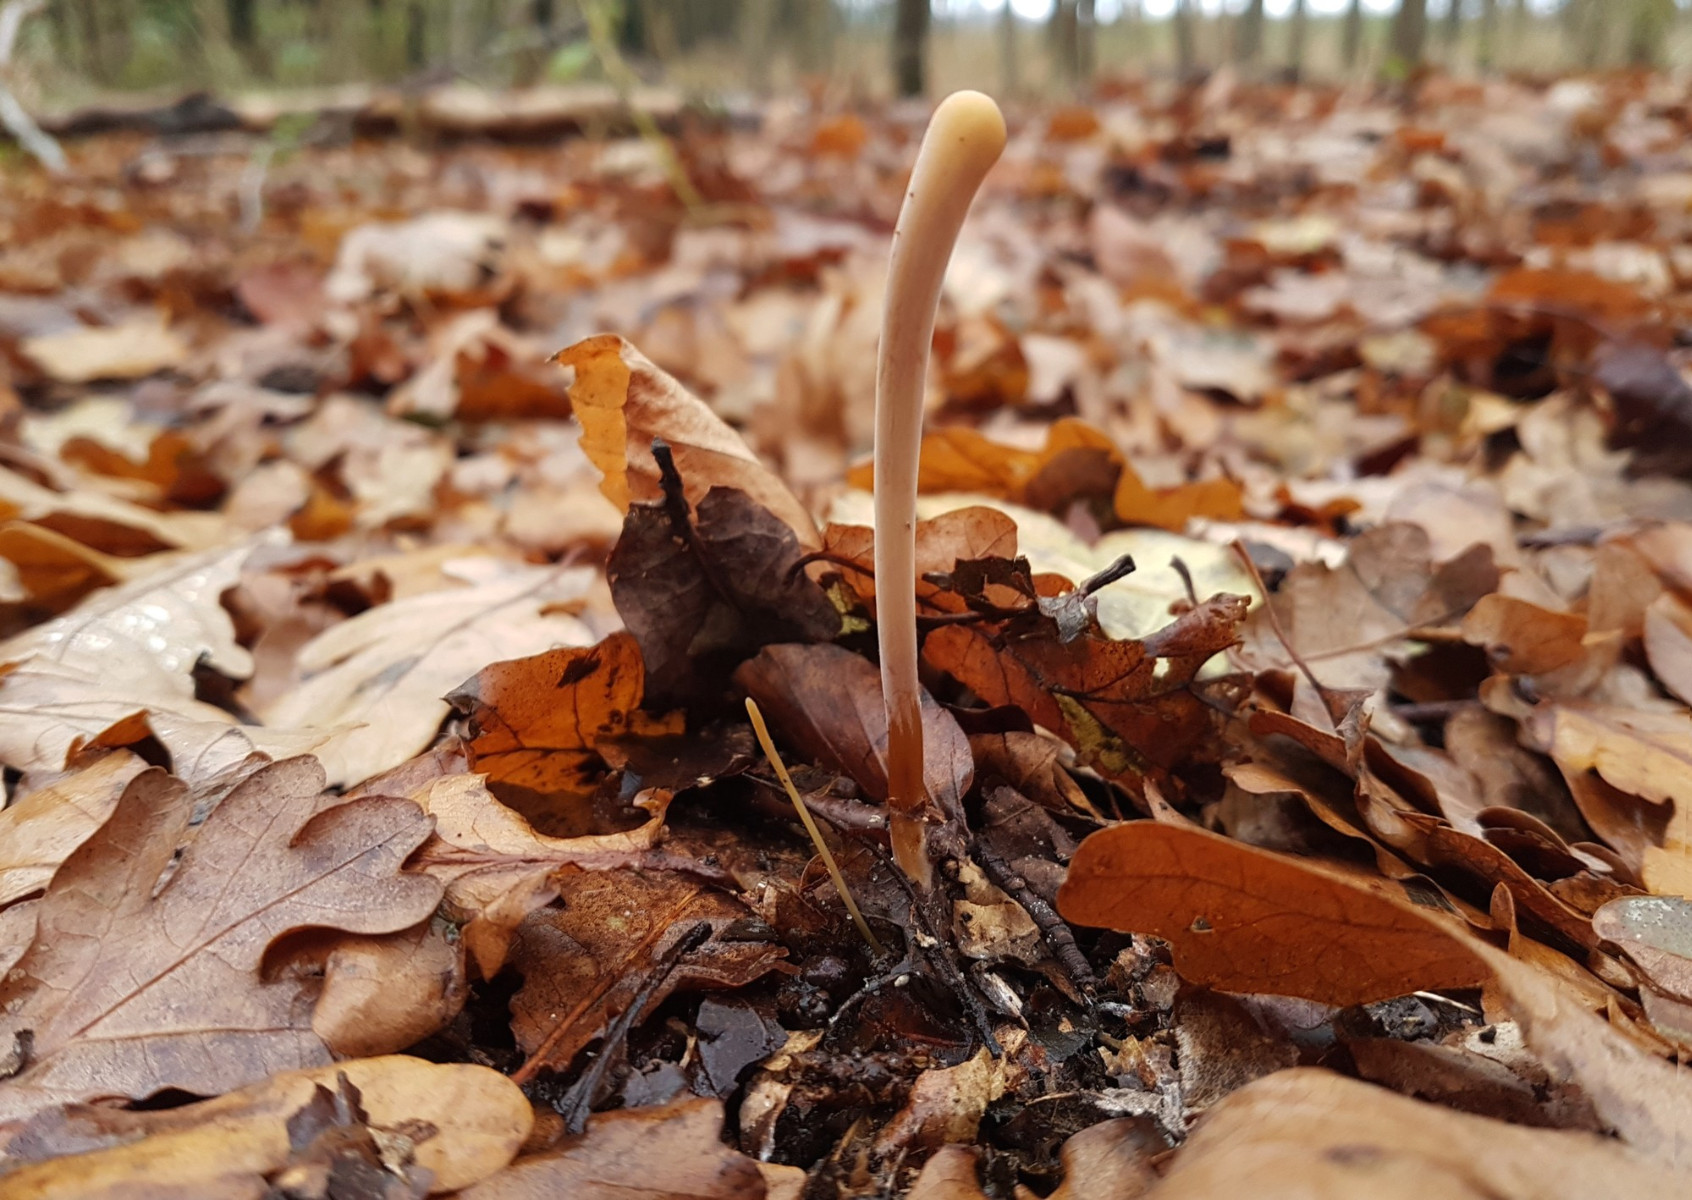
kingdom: Fungi
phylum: Basidiomycota
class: Agaricomycetes
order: Agaricales
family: Typhulaceae
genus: Typhula
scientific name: Typhula fistulosa
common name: pibet rørkølle
